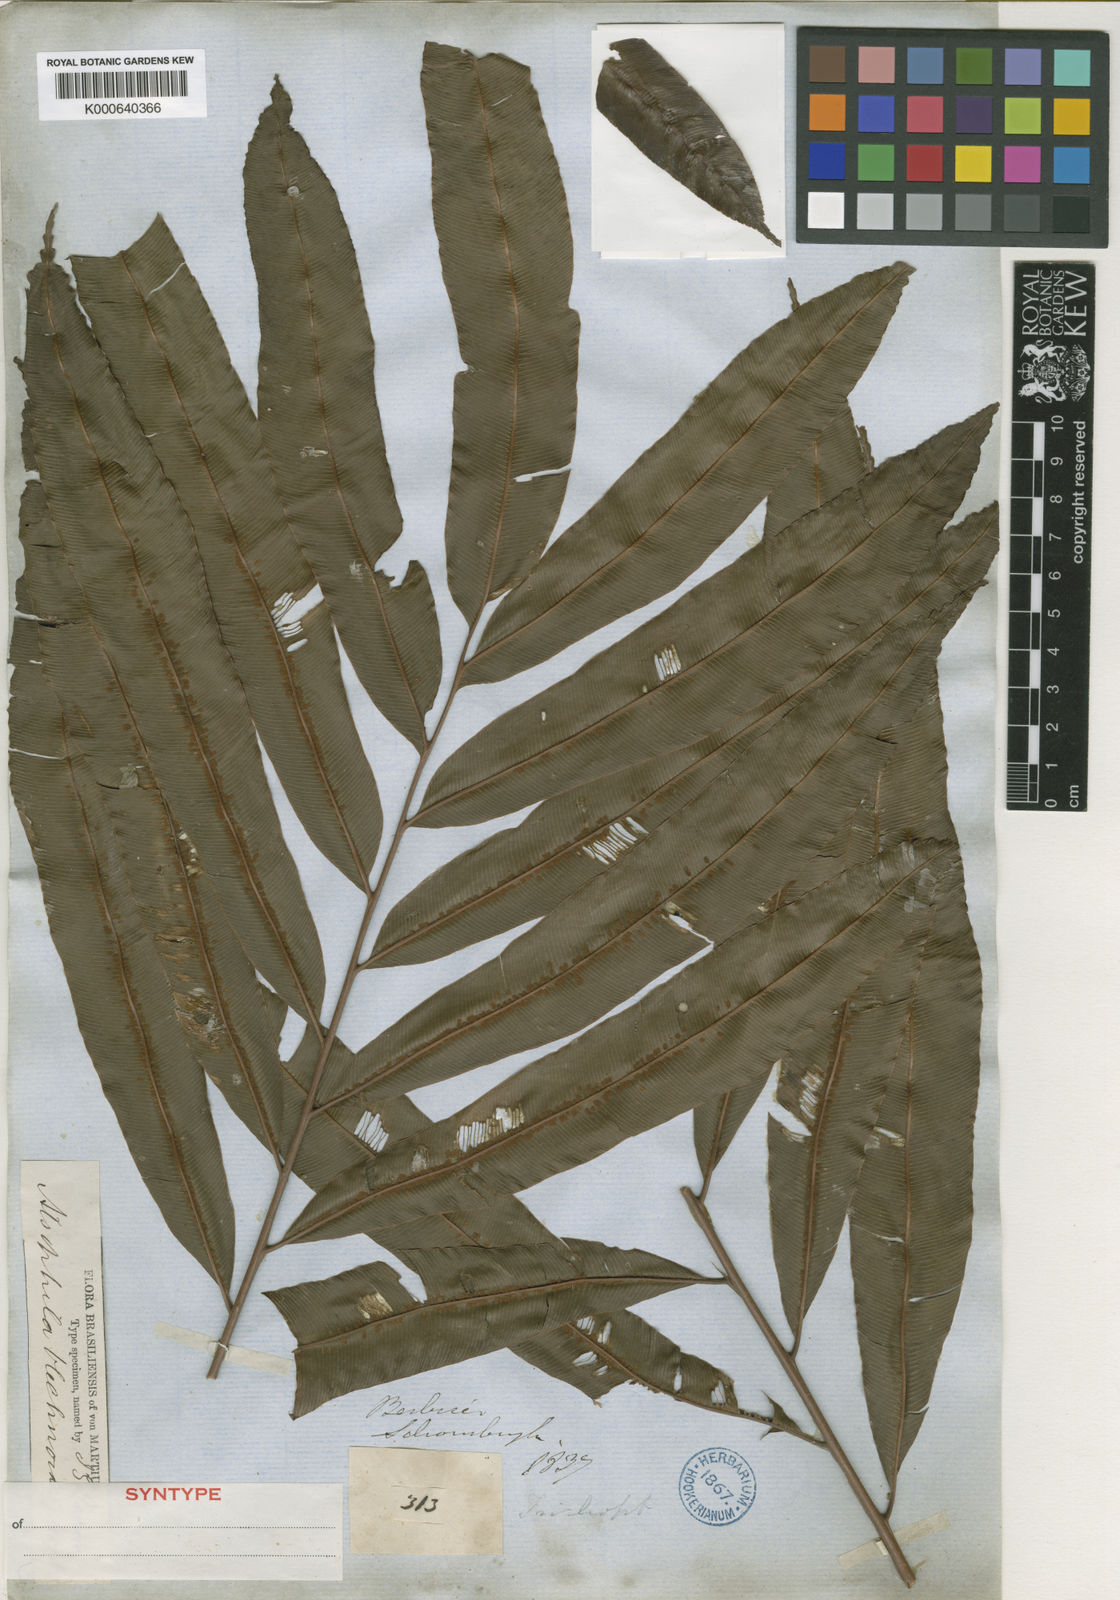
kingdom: Plantae
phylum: Tracheophyta
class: Polypodiopsida
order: Cyatheales
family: Metaxyaceae
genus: Metaxya
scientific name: Metaxya rostrata
